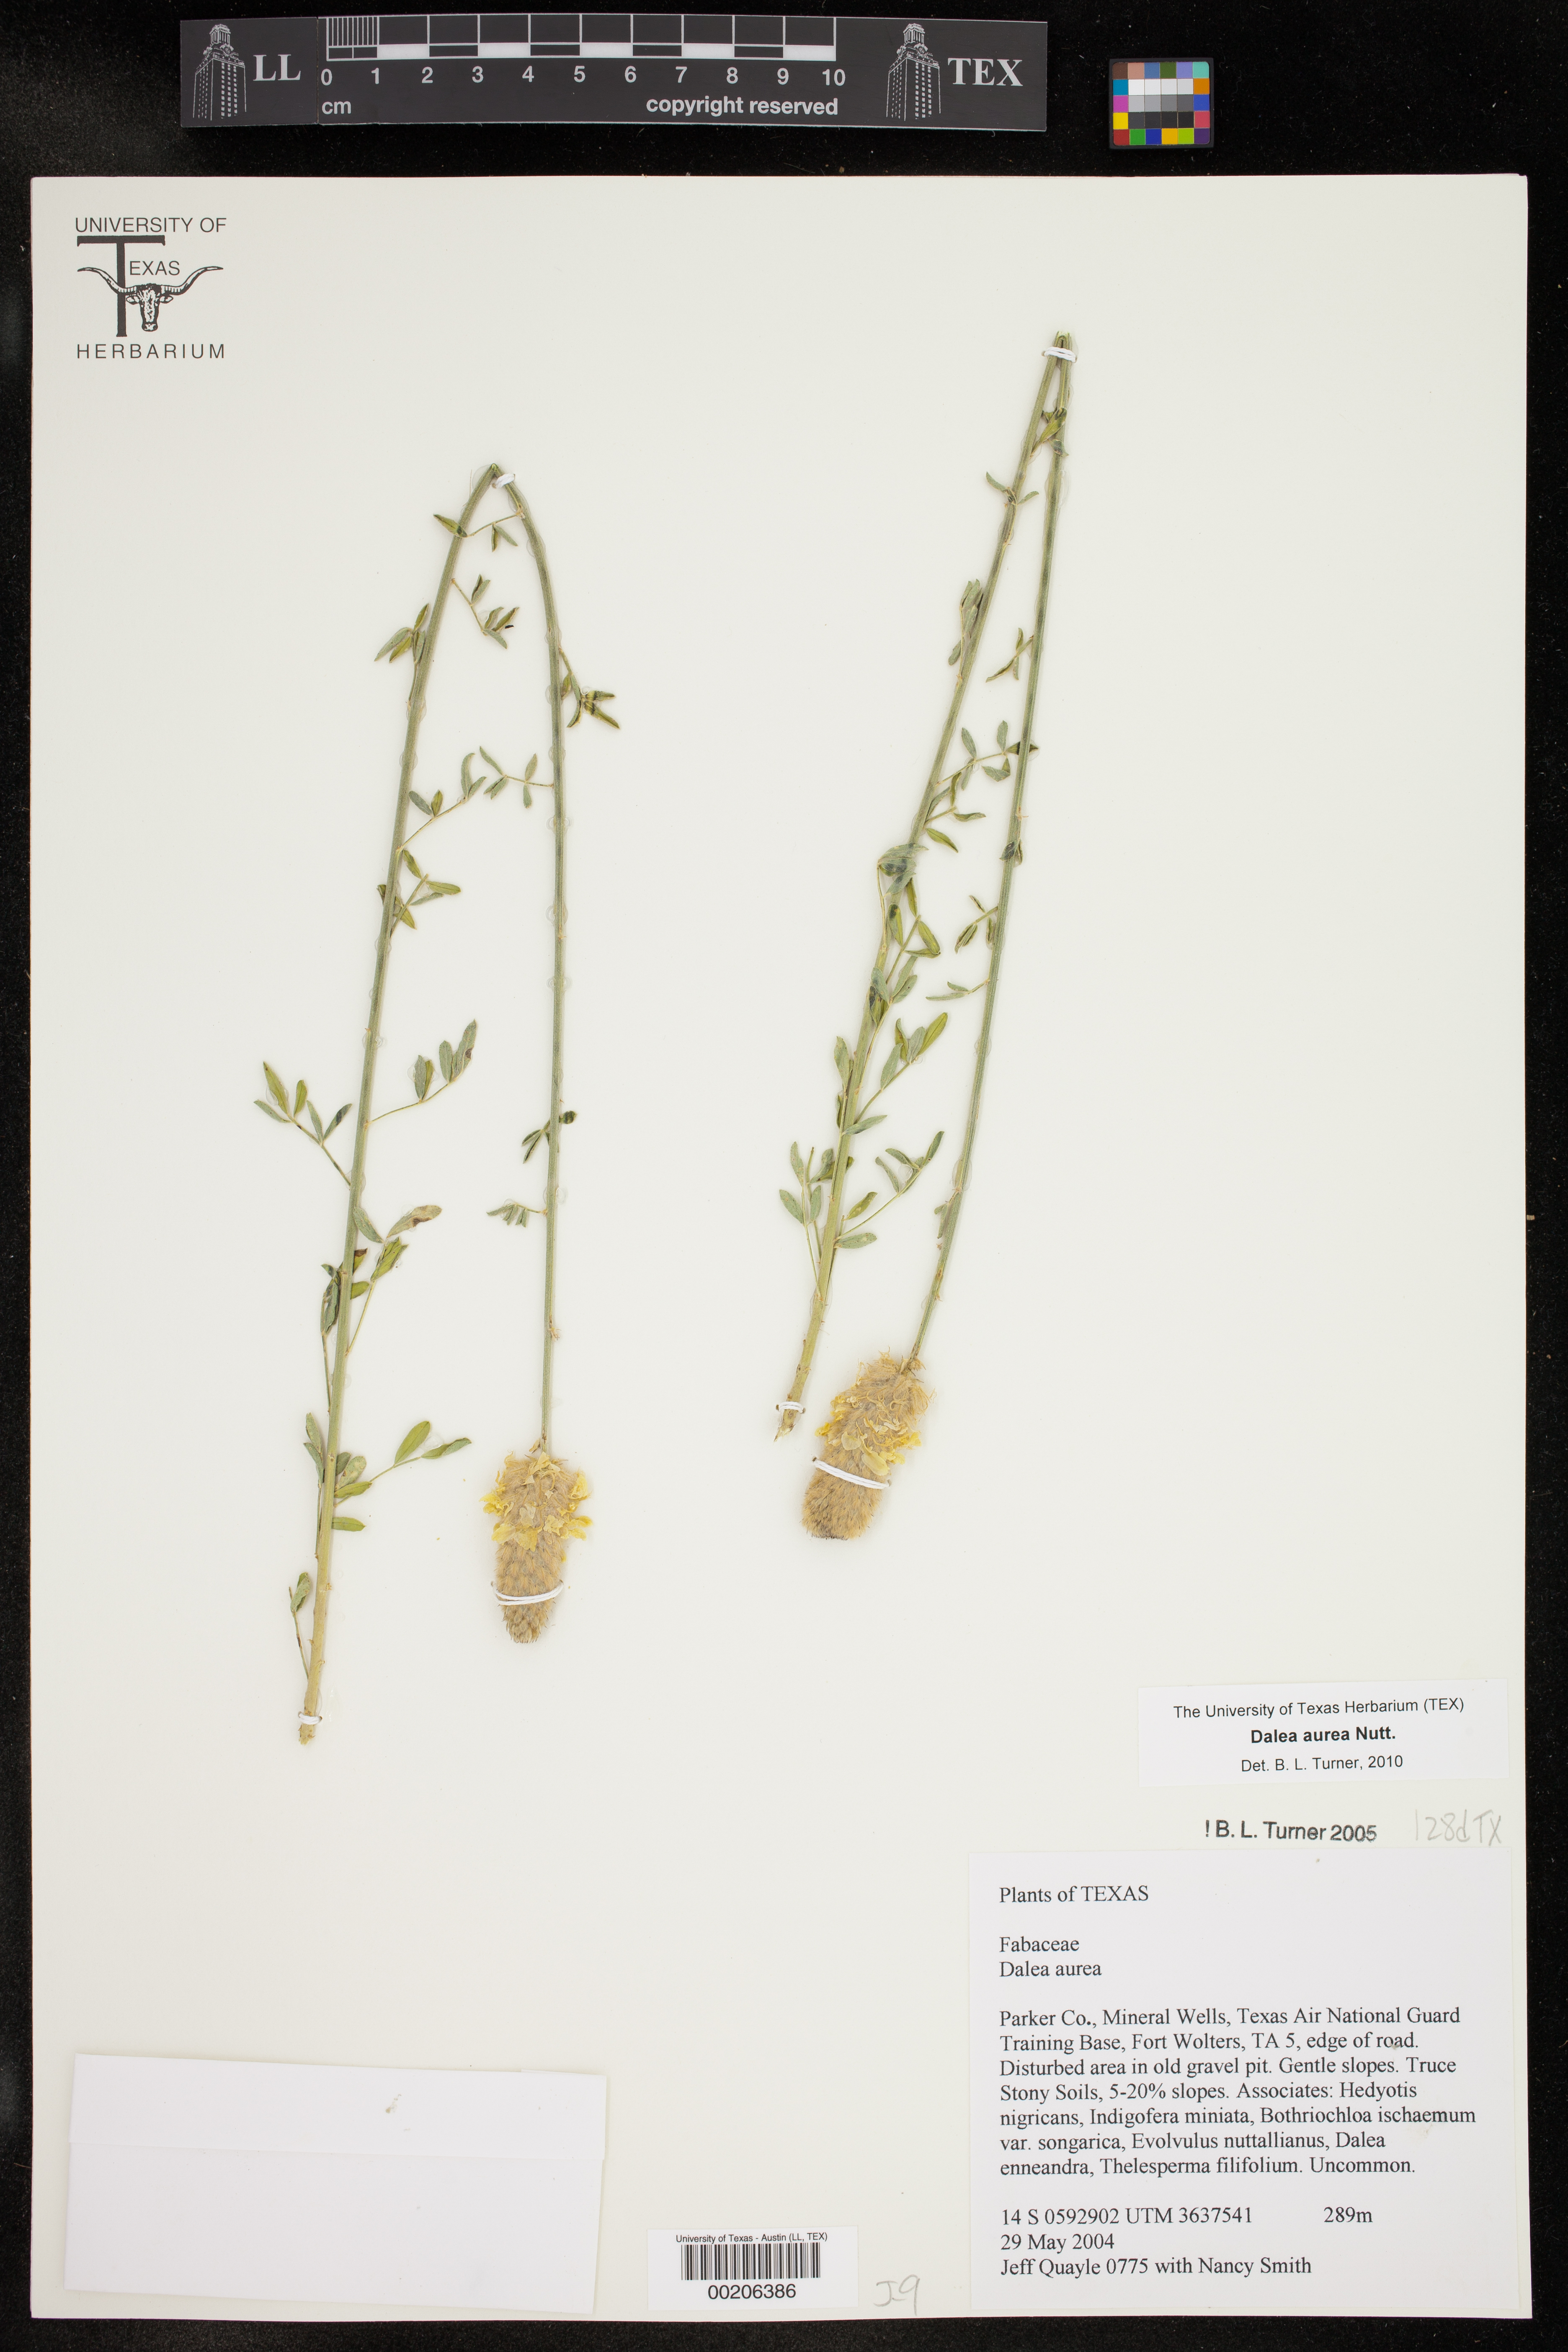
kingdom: Plantae
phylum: Tracheophyta
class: Magnoliopsida
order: Fabales
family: Fabaceae
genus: Dalea
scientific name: Dalea aurea
